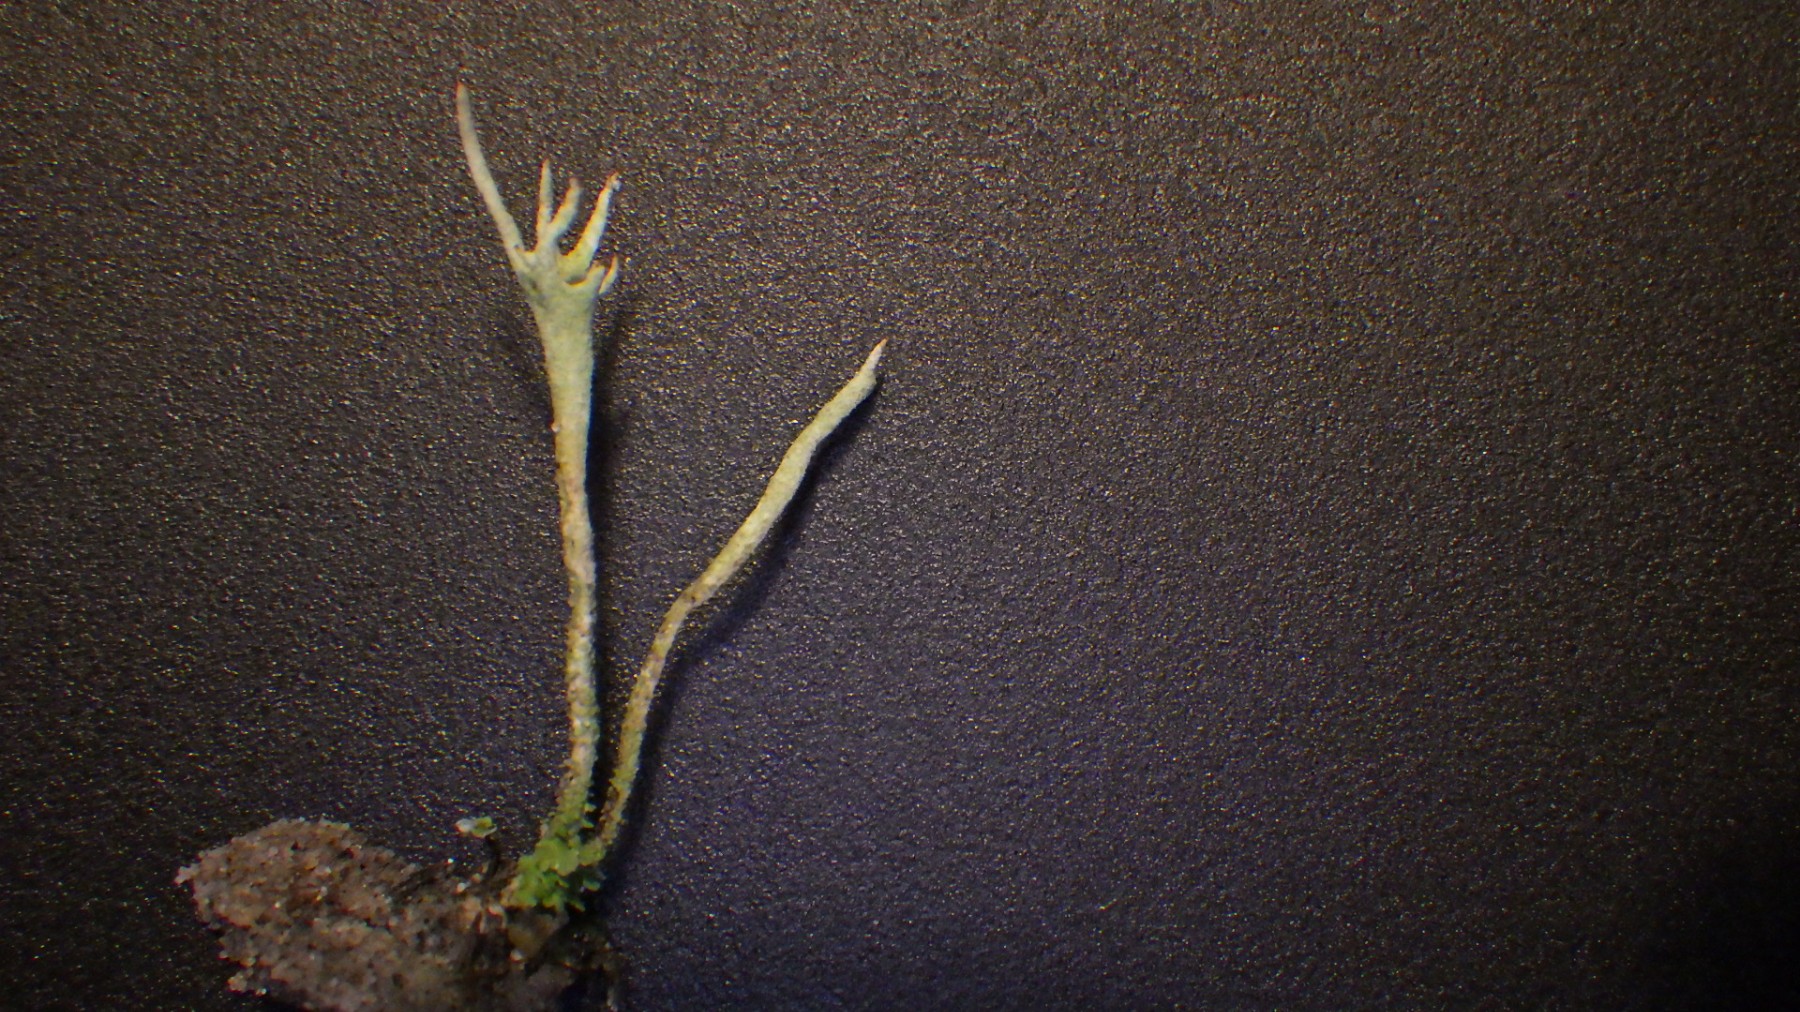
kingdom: Fungi
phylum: Ascomycota
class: Lecanoromycetes
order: Lecanorales
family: Cladoniaceae
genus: Cladonia
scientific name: Cladonia subulata
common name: spids bægerlav
